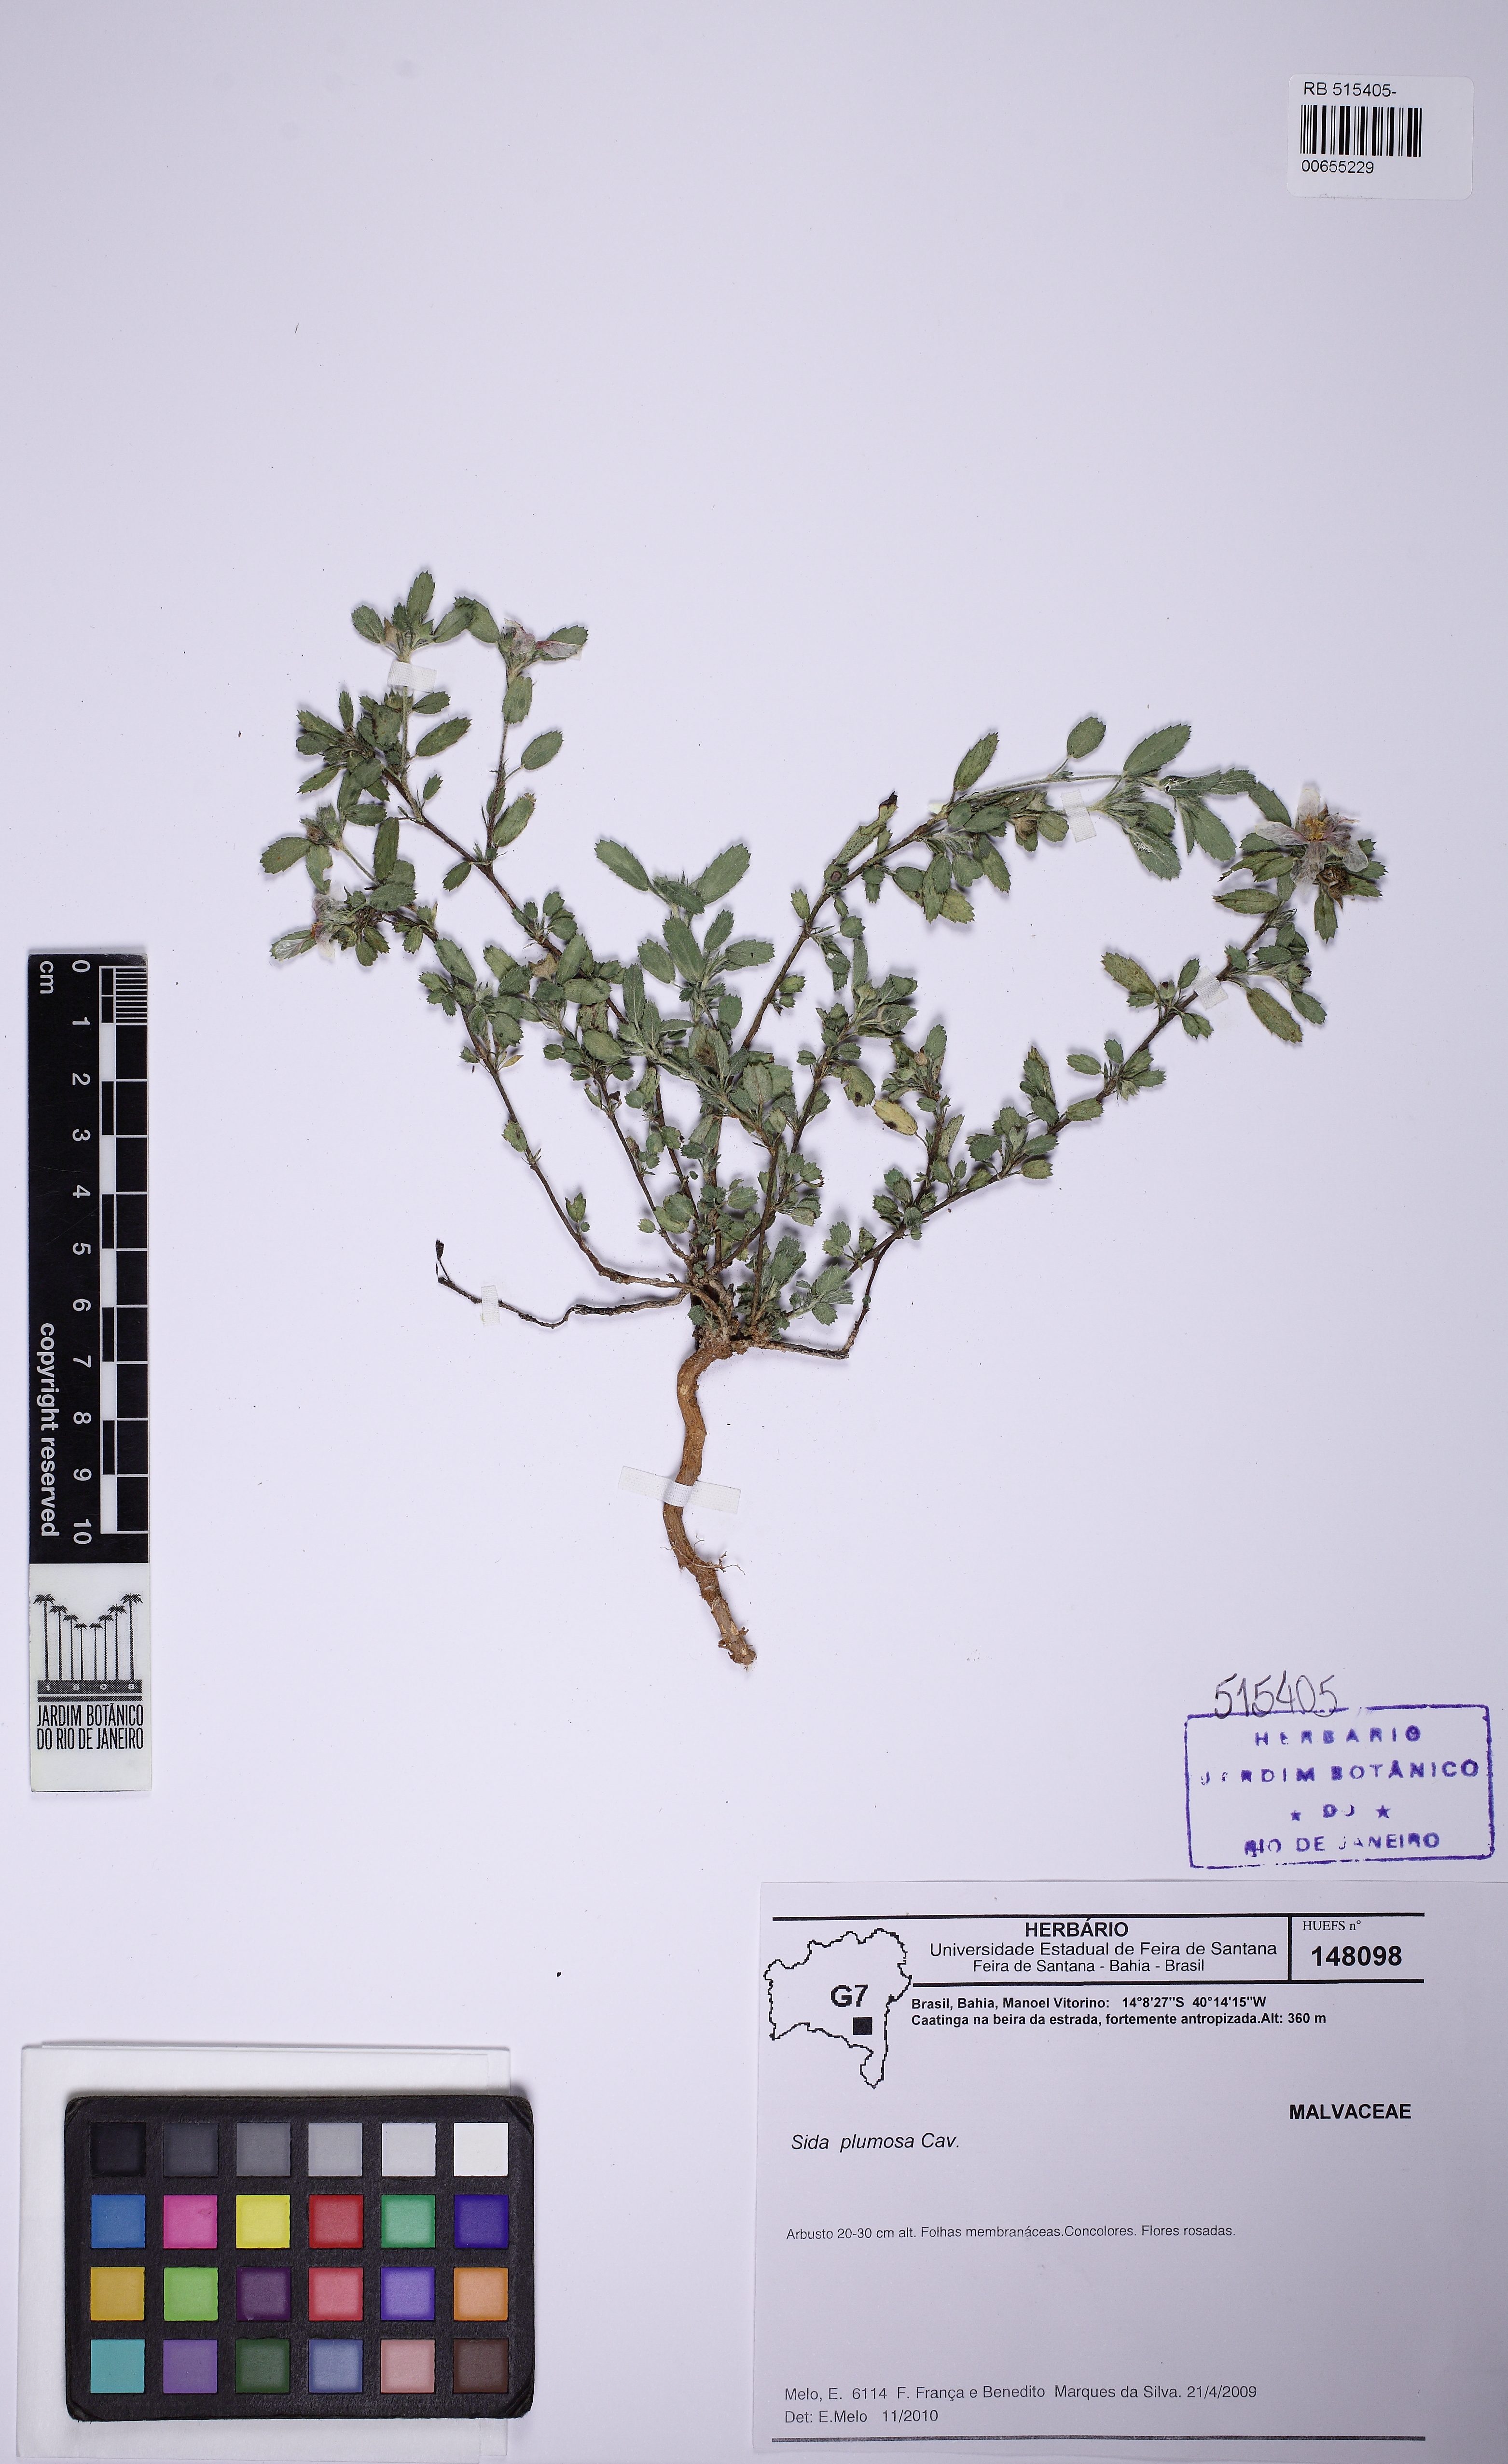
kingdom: Plantae
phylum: Tracheophyta
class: Magnoliopsida
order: Malvales
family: Malvaceae
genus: Sida
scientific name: Sida ciliaris
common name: Bracted fanpetals
